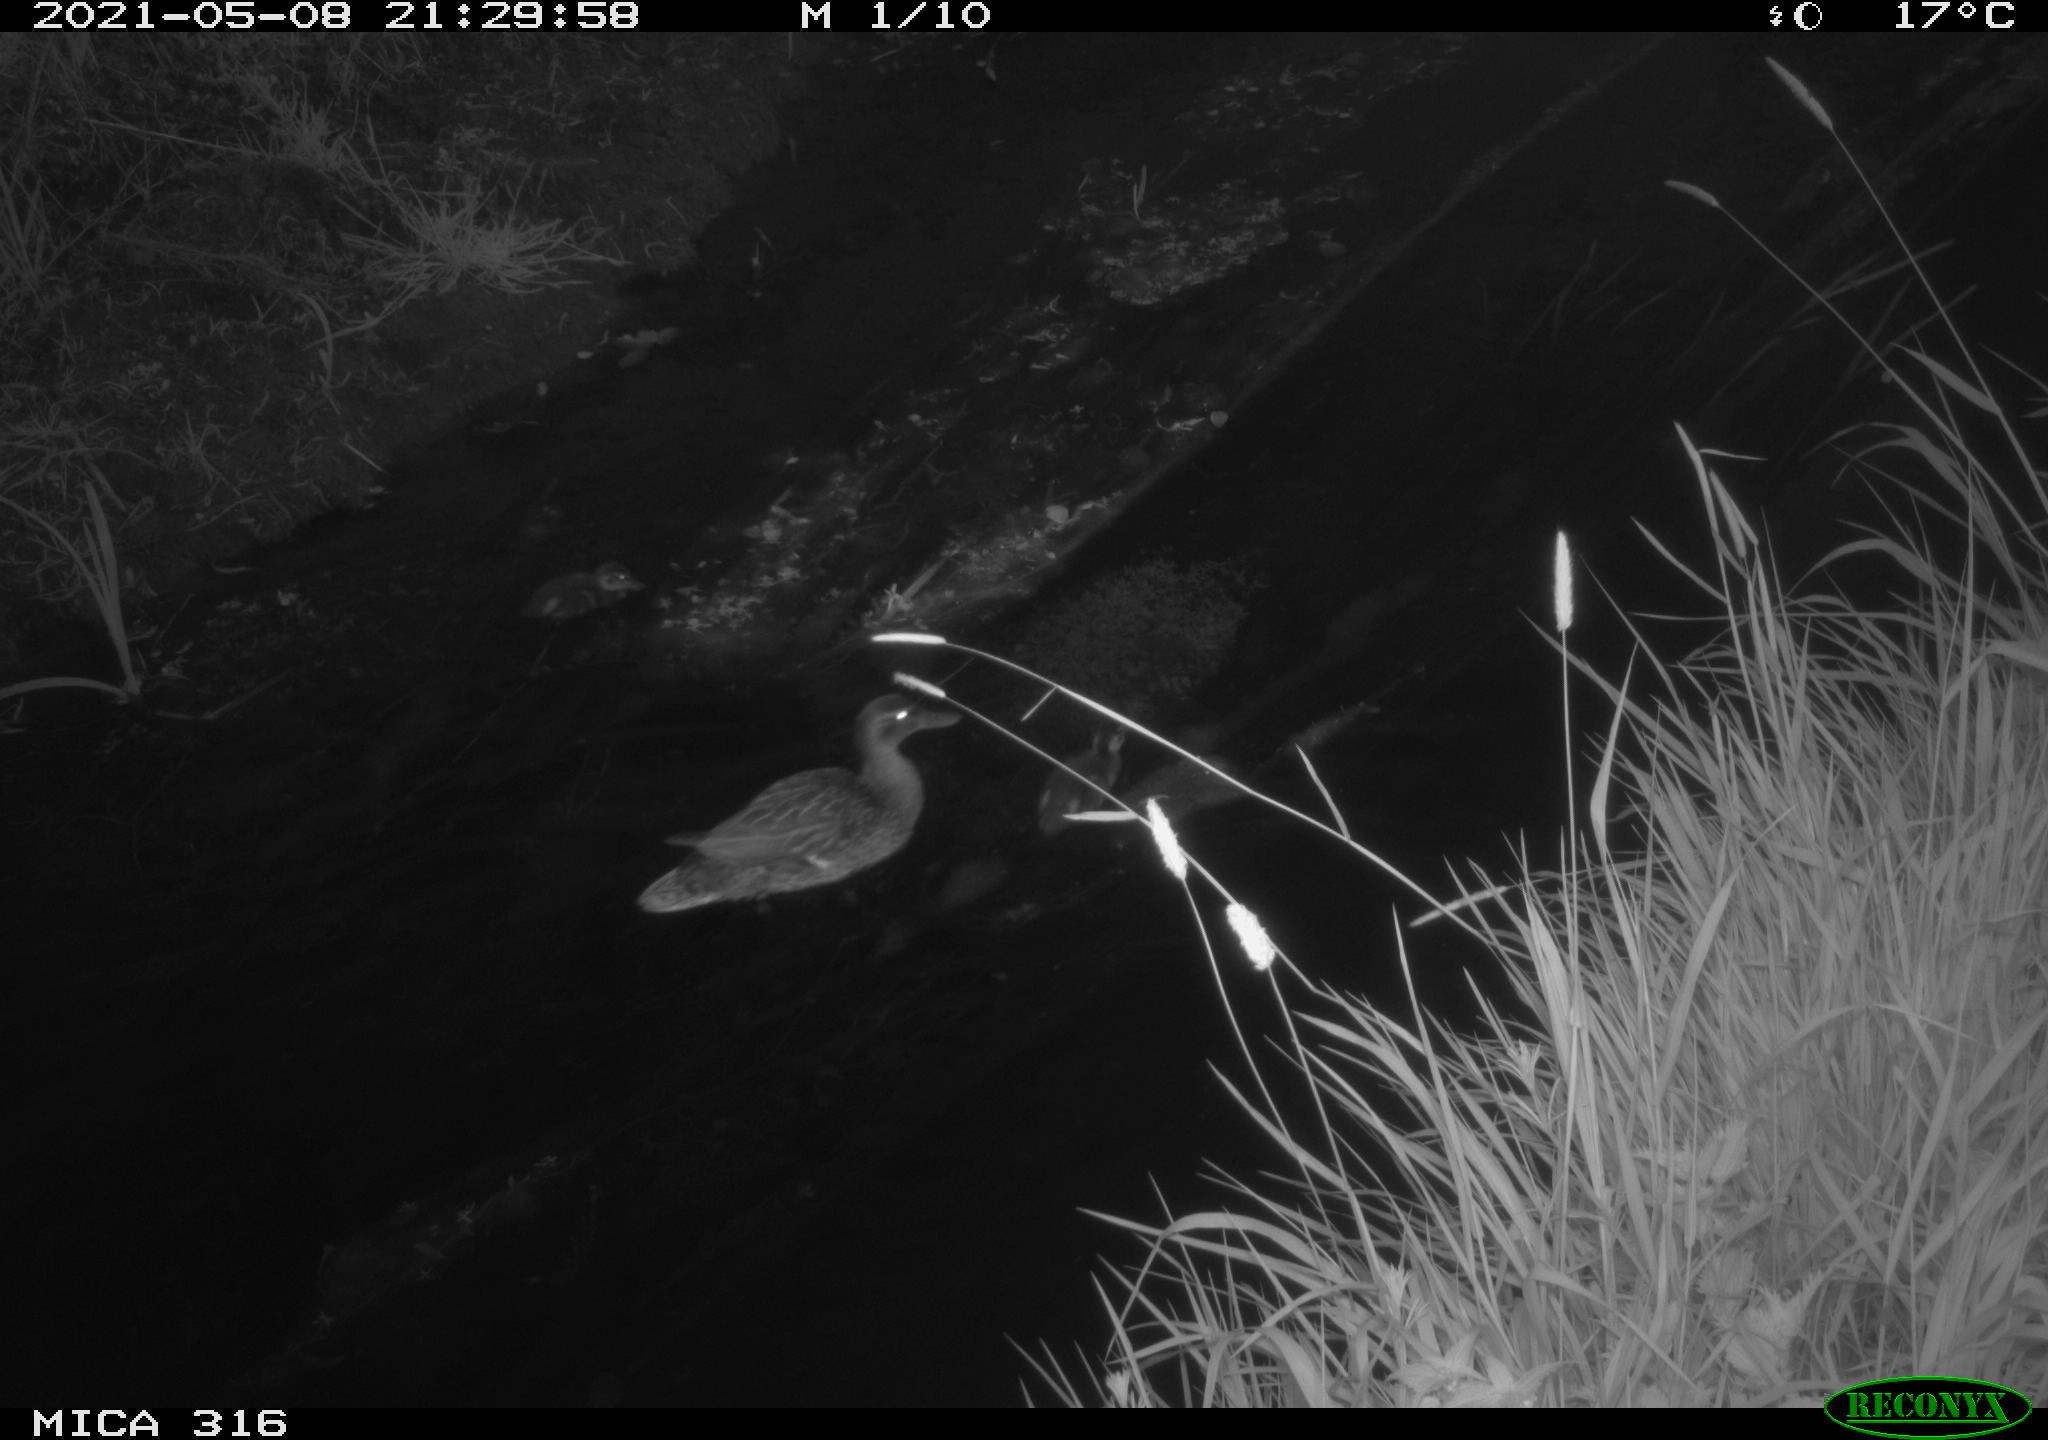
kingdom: Animalia
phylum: Chordata
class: Aves
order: Anseriformes
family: Anatidae
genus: Anas
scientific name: Anas platyrhynchos
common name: Mallard
